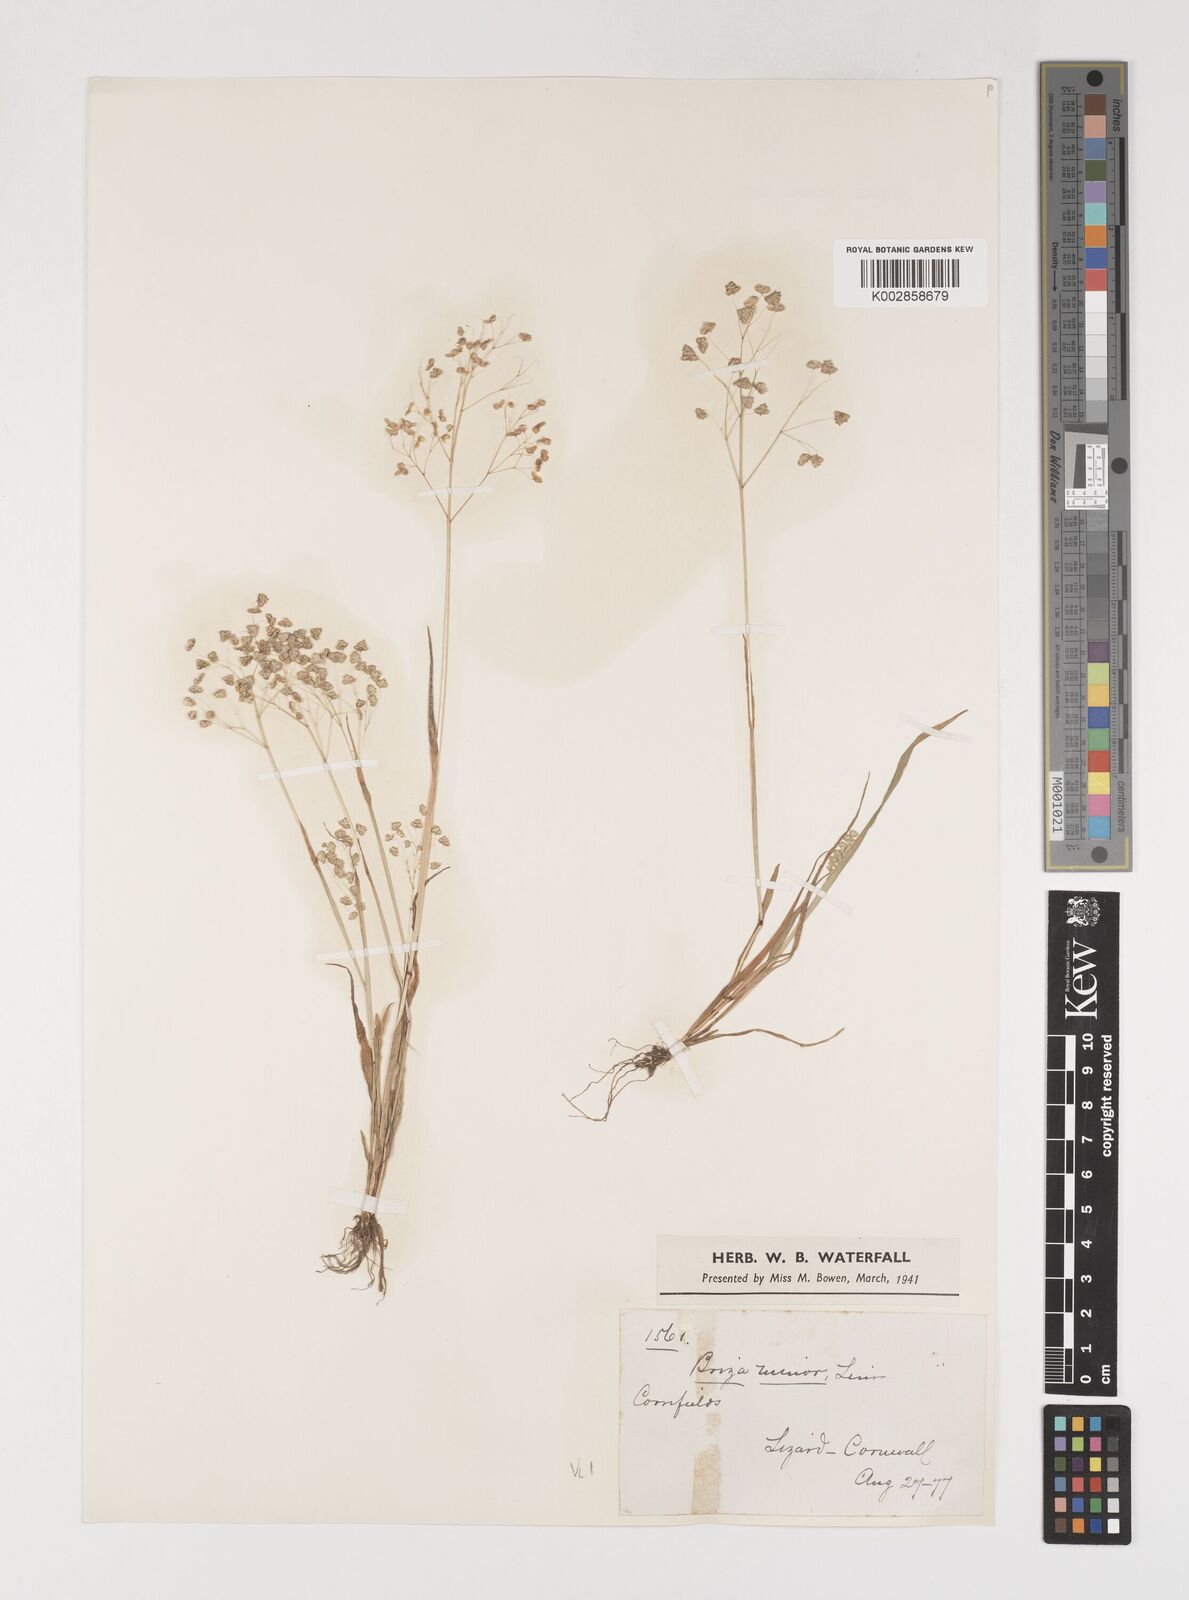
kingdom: Plantae
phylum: Tracheophyta
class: Liliopsida
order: Poales
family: Poaceae
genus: Briza
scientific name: Briza minor
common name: Lesser quaking-grass
